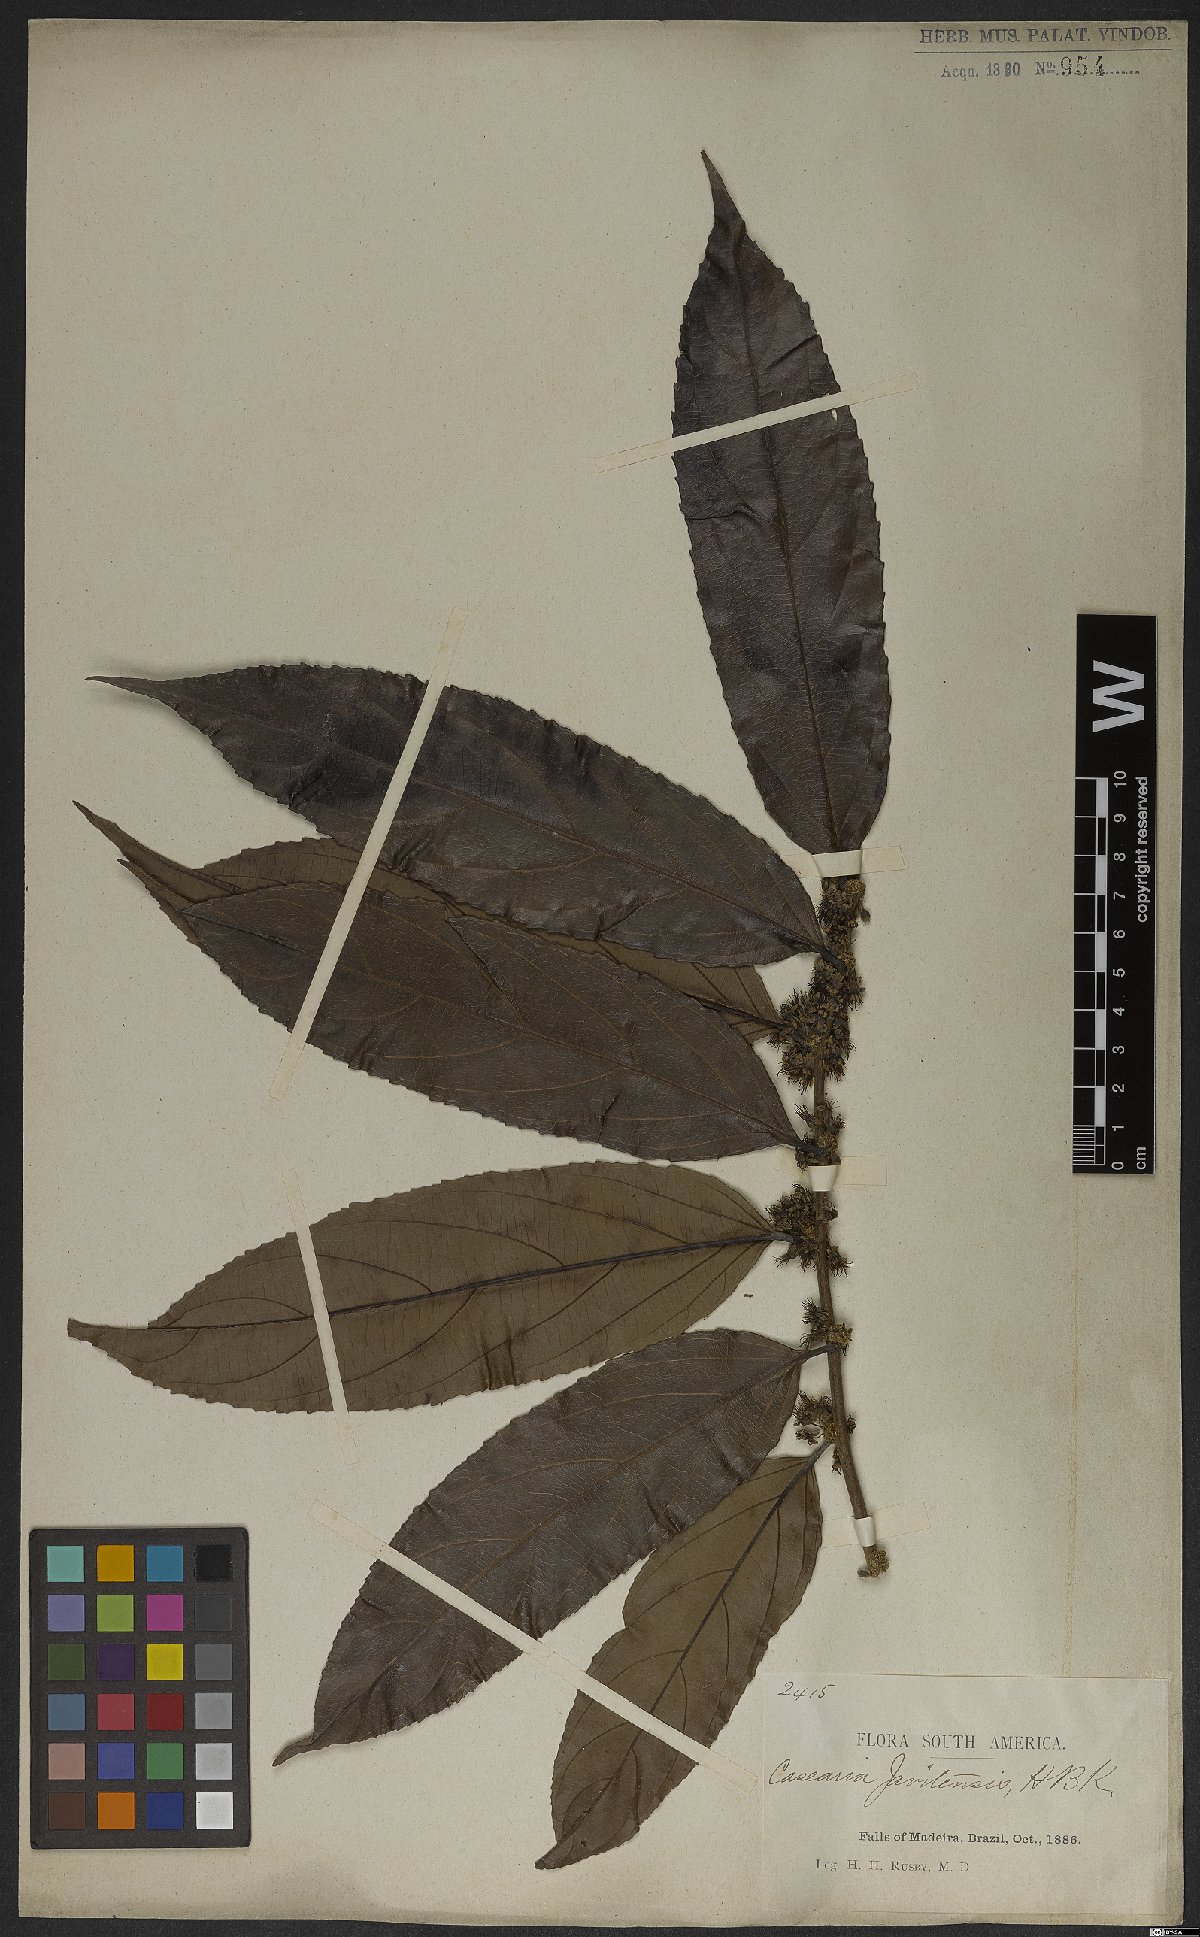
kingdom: Plantae
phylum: Tracheophyta
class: Magnoliopsida
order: Malpighiales
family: Salicaceae
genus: Piparea
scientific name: Piparea multiflora
